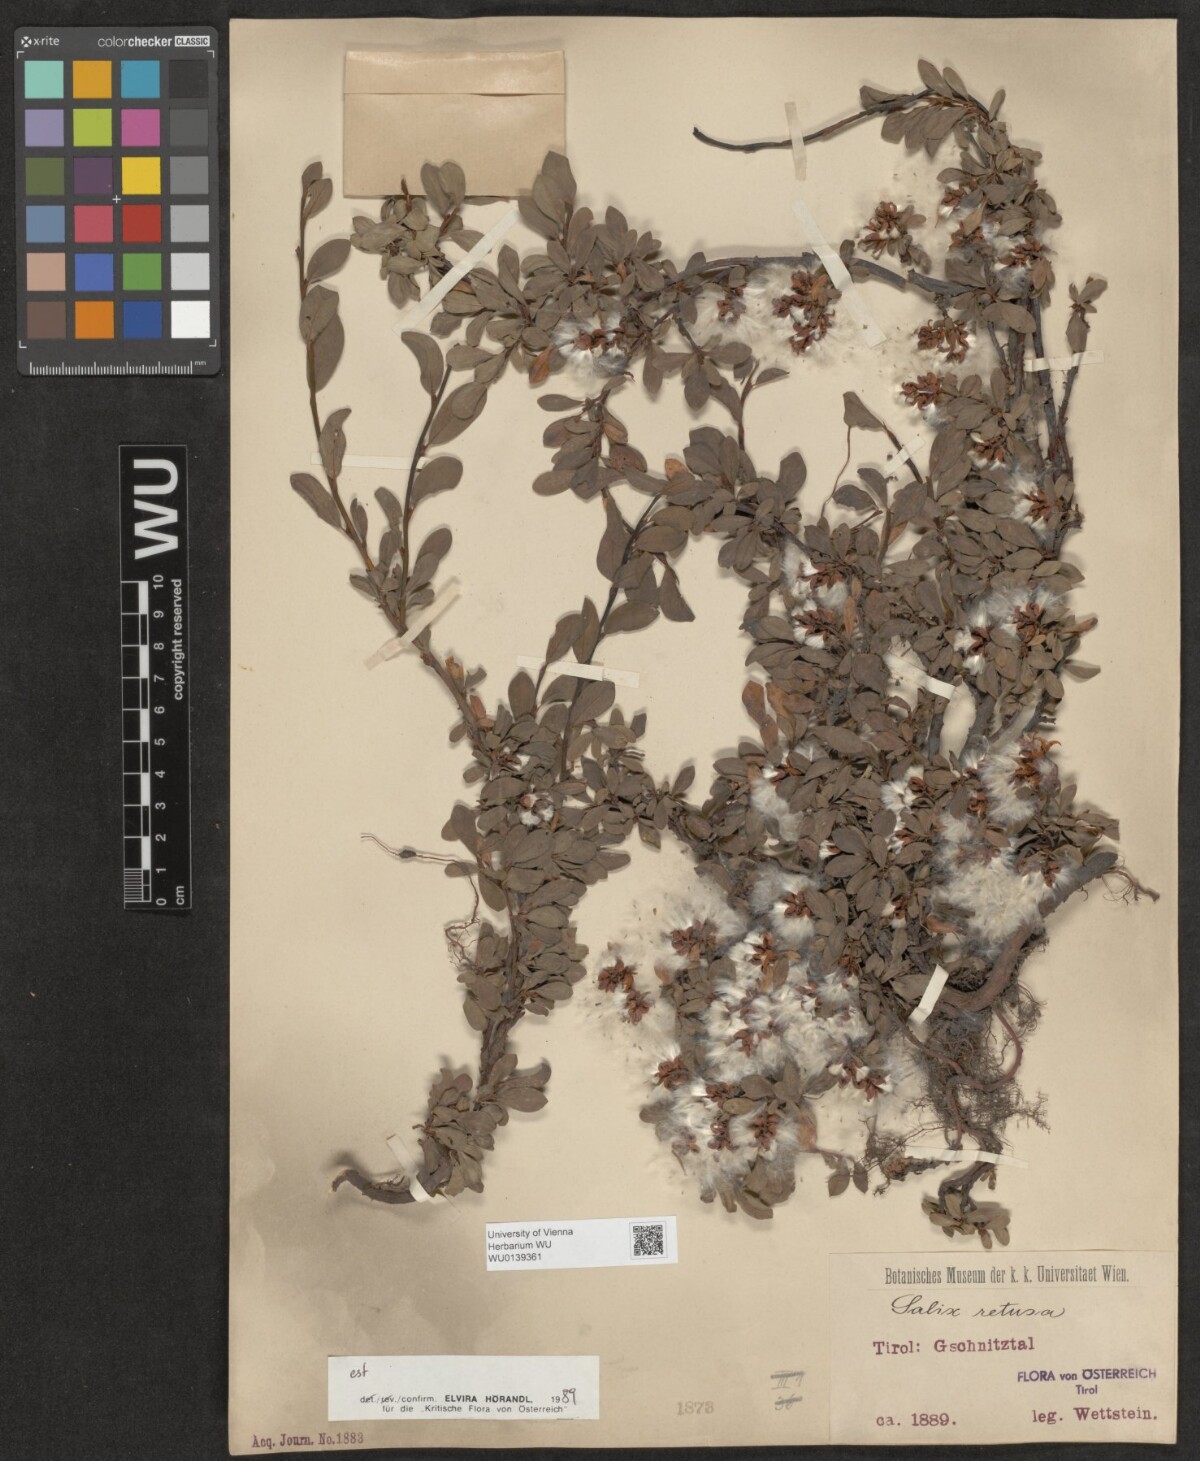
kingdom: Plantae
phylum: Tracheophyta
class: Magnoliopsida
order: Malpighiales
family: Salicaceae
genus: Salix
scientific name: Salix retusa
